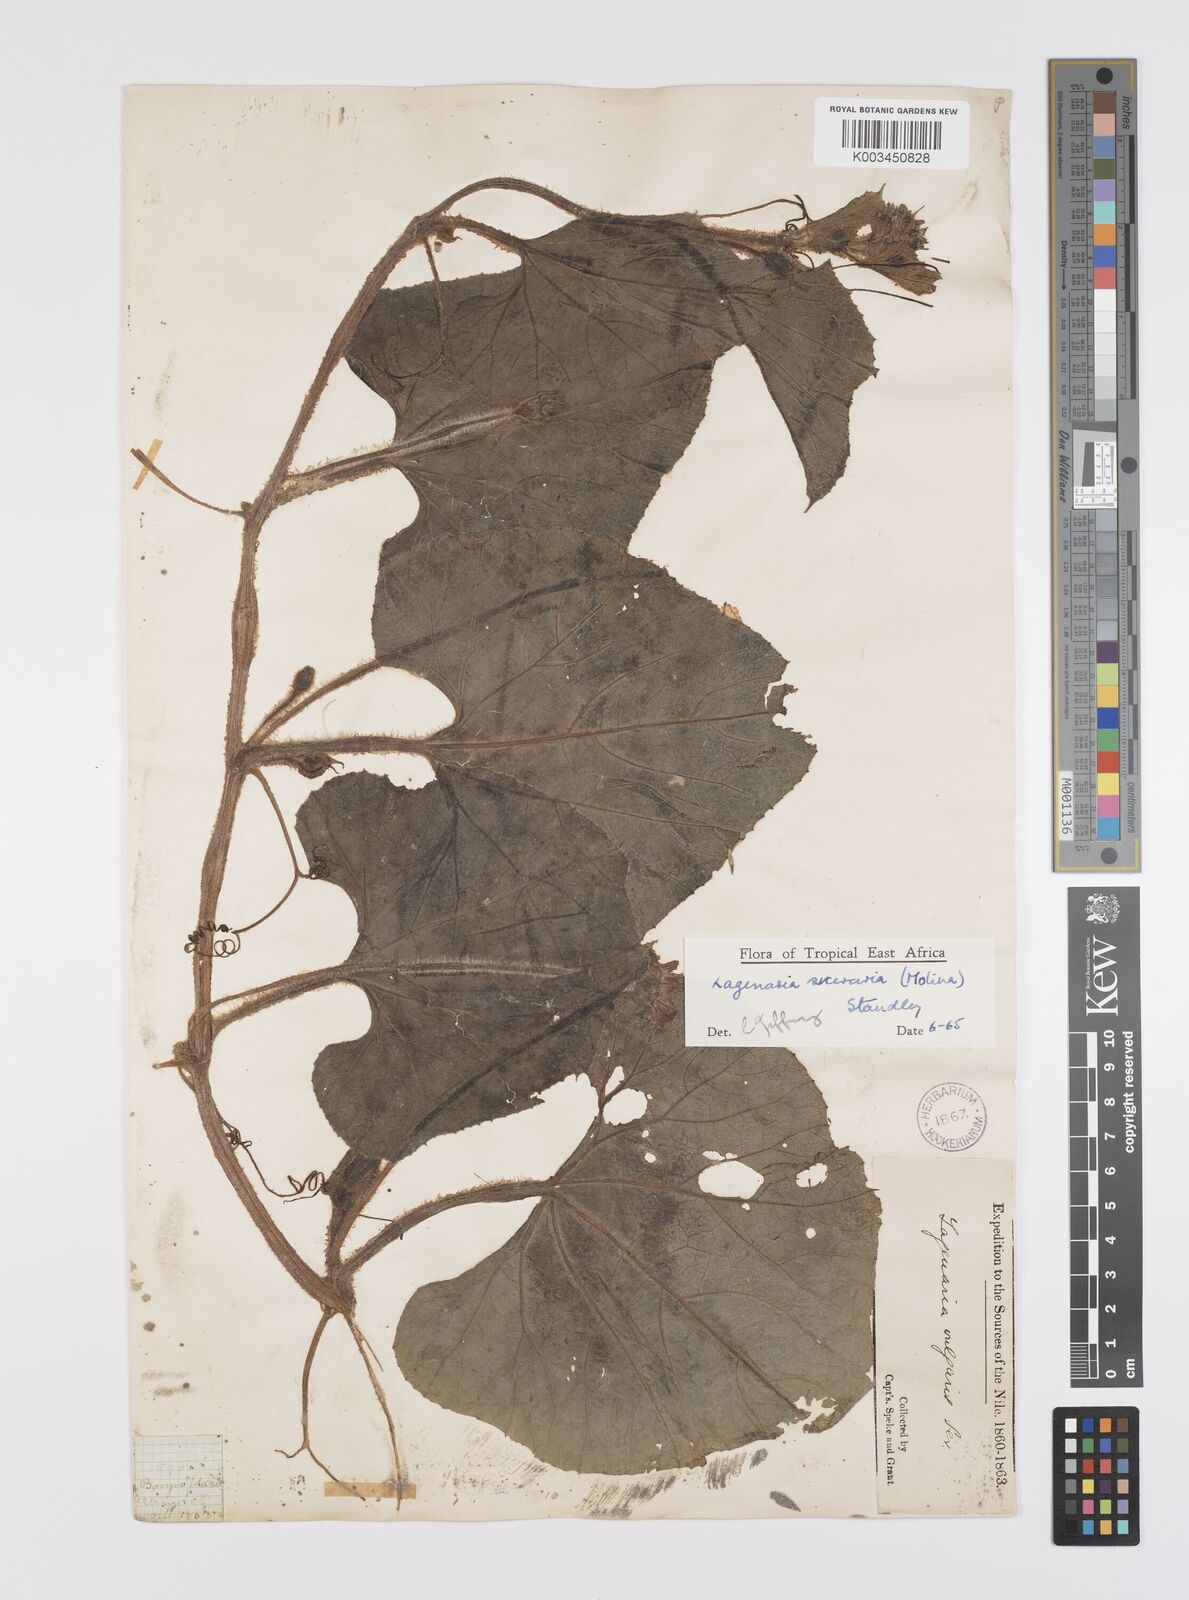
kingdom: Plantae
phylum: Tracheophyta
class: Magnoliopsida
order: Cucurbitales
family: Cucurbitaceae
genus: Lagenaria
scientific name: Lagenaria siceraria
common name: Bottle gourd
